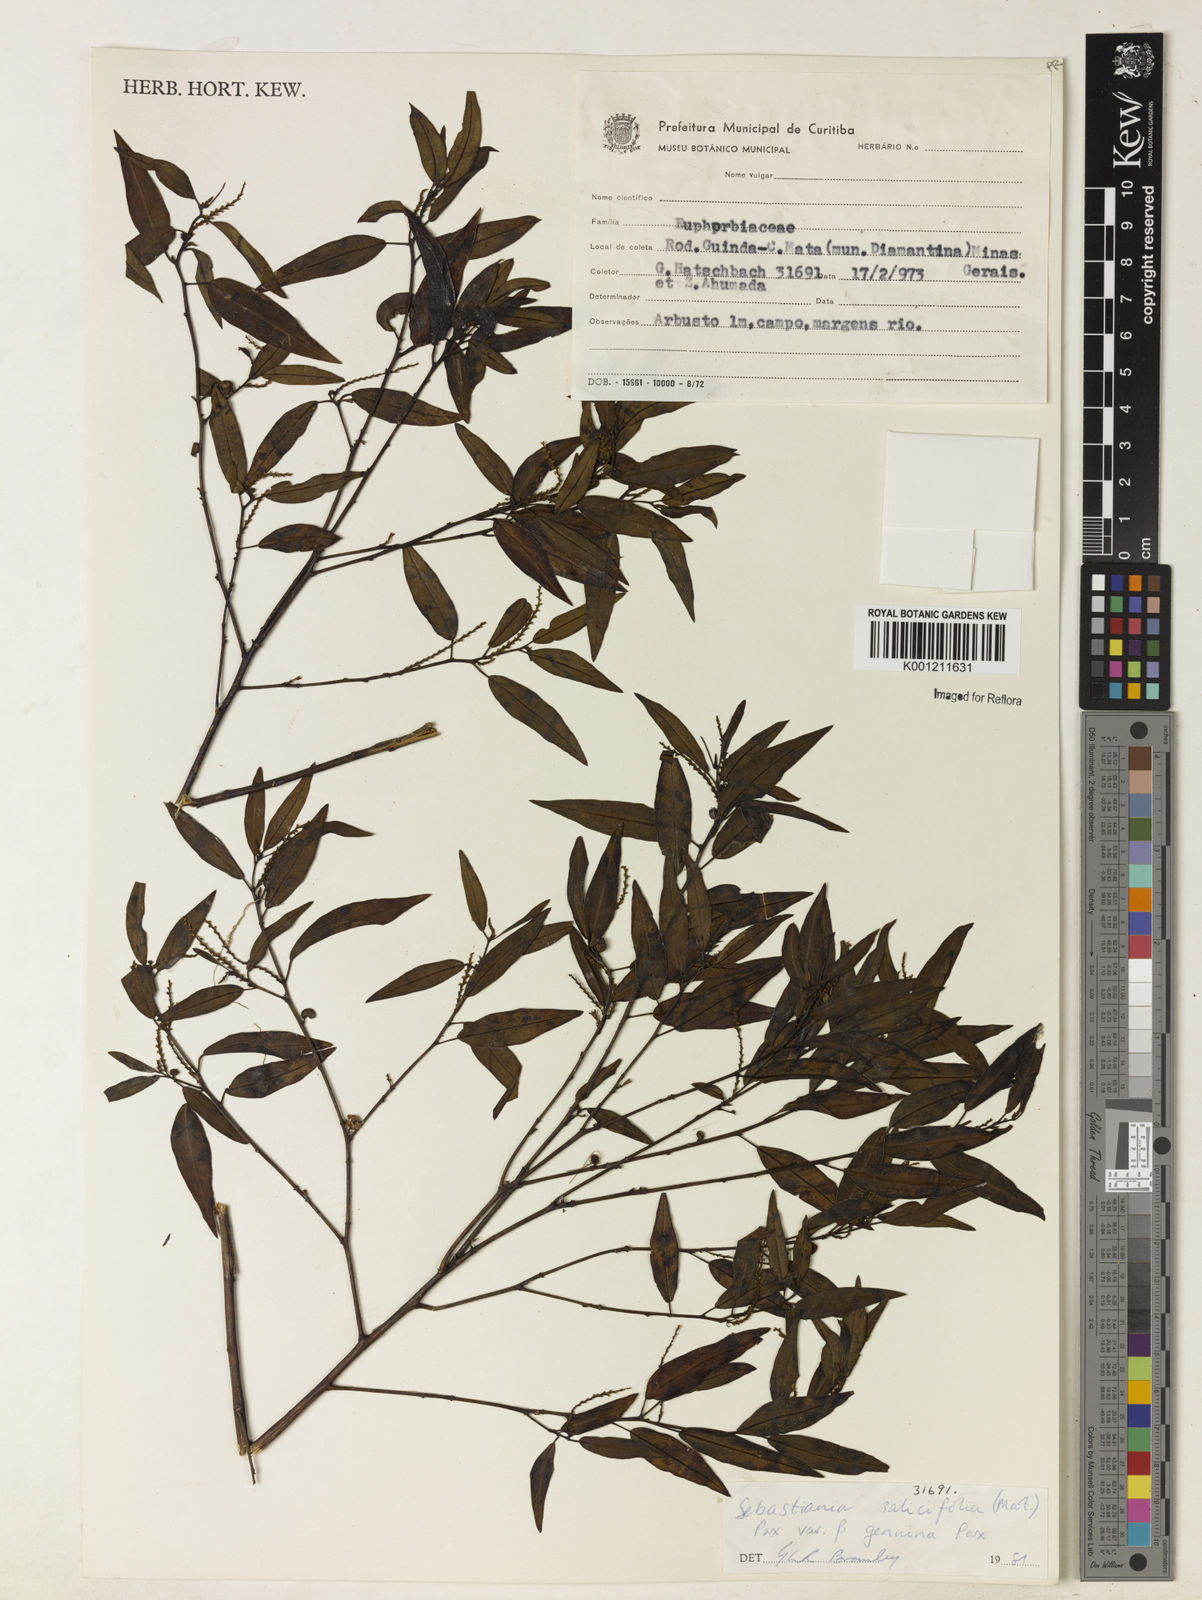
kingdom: Plantae
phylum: Tracheophyta
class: Magnoliopsida
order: Malpighiales
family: Euphorbiaceae
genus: Microstachys
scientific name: Microstachys
